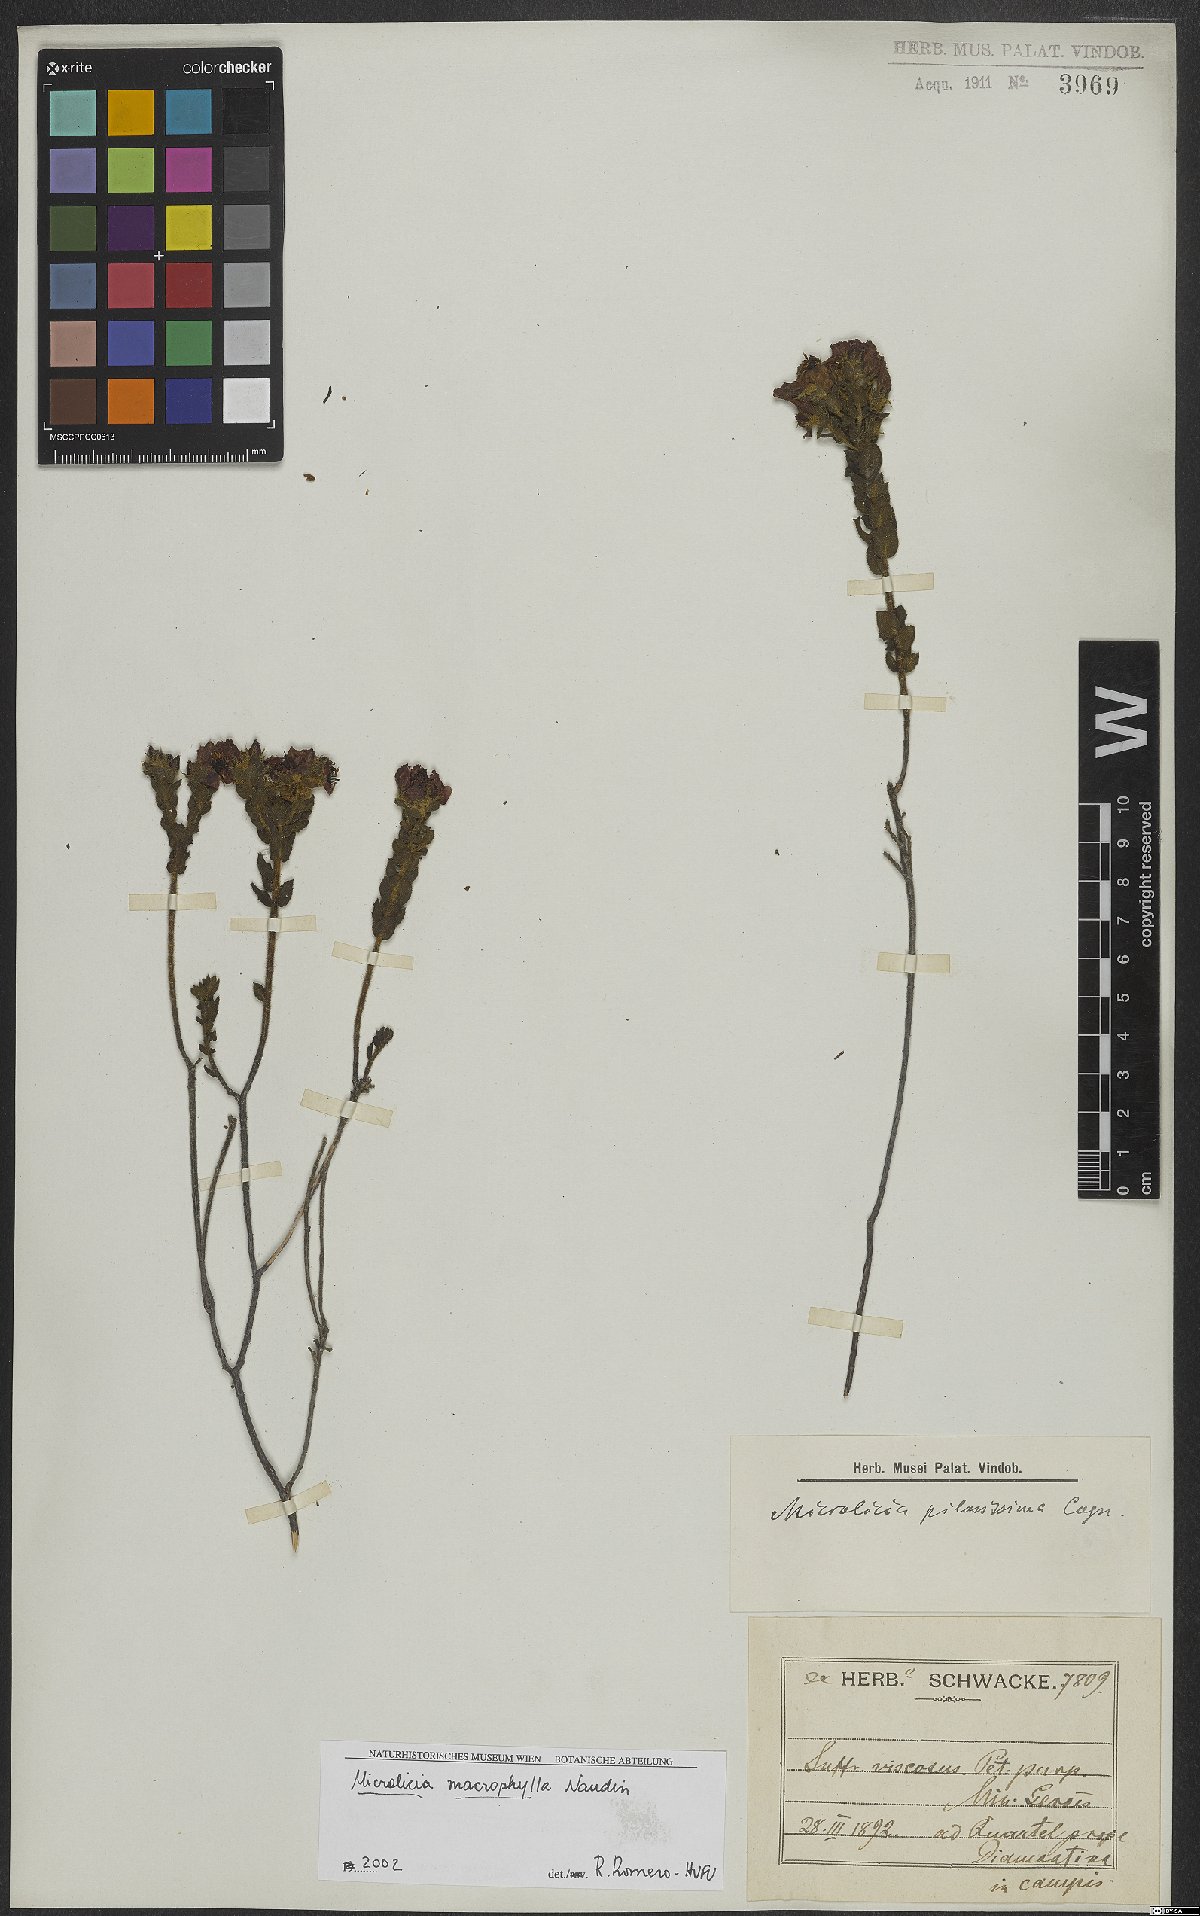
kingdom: Plantae
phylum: Tracheophyta
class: Magnoliopsida
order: Myrtales
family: Melastomataceae
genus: Microlicia
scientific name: Microlicia macrophylla
